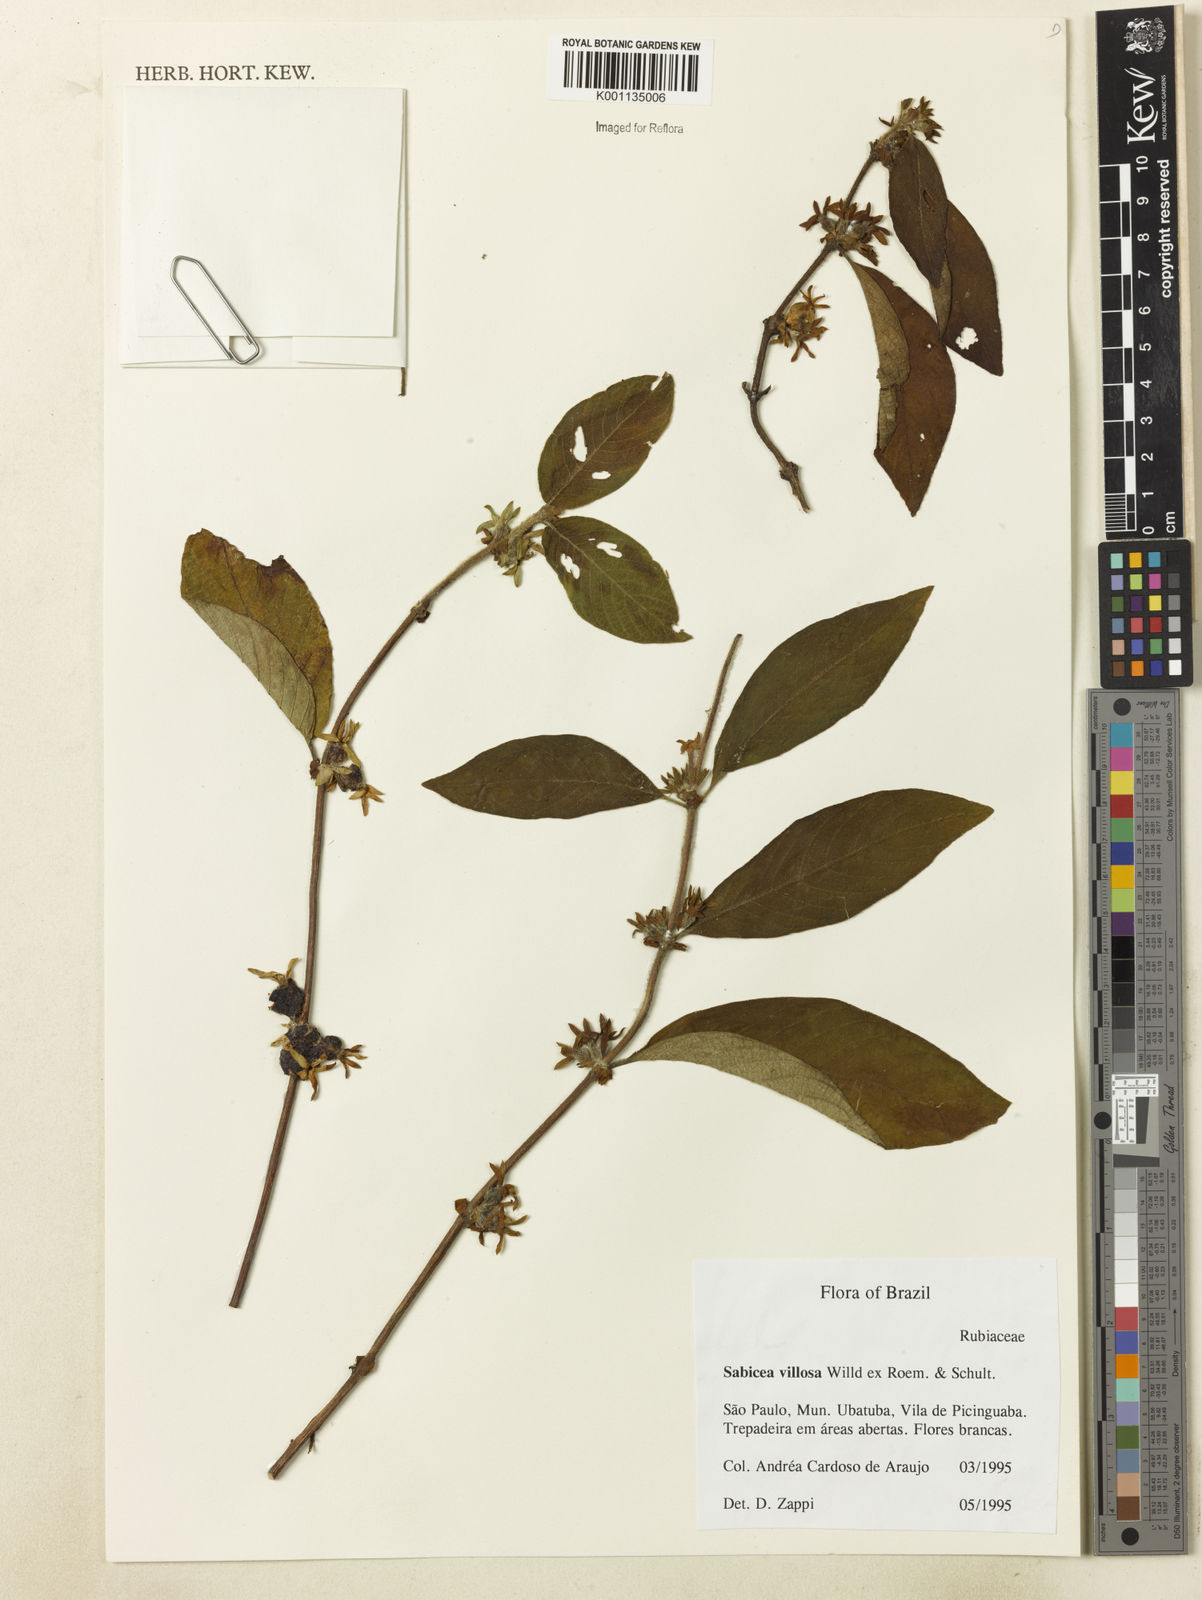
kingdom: Plantae
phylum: Tracheophyta
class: Magnoliopsida
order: Gentianales
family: Rubiaceae
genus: Sabicea
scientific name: Sabicea villosa
